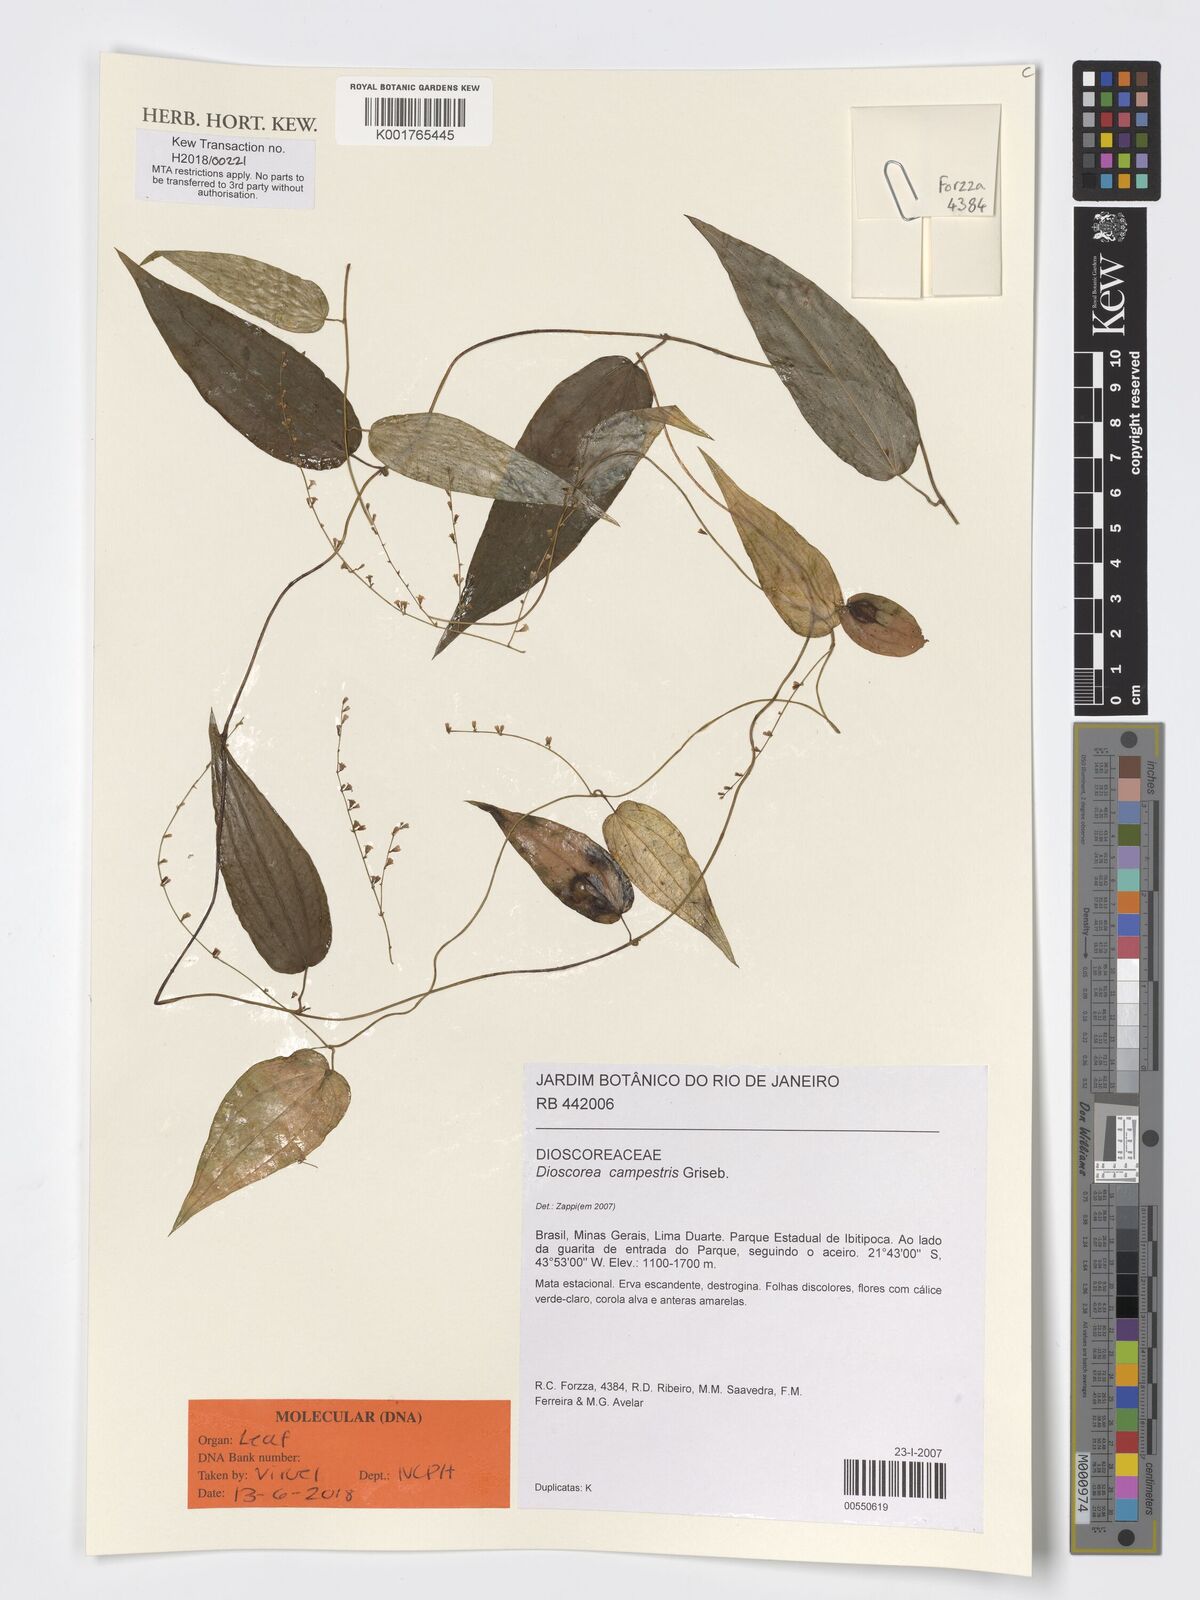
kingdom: Plantae
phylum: Tracheophyta
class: Liliopsida
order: Dioscoreales
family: Dioscoreaceae
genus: Dioscorea
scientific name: Dioscorea campestris
